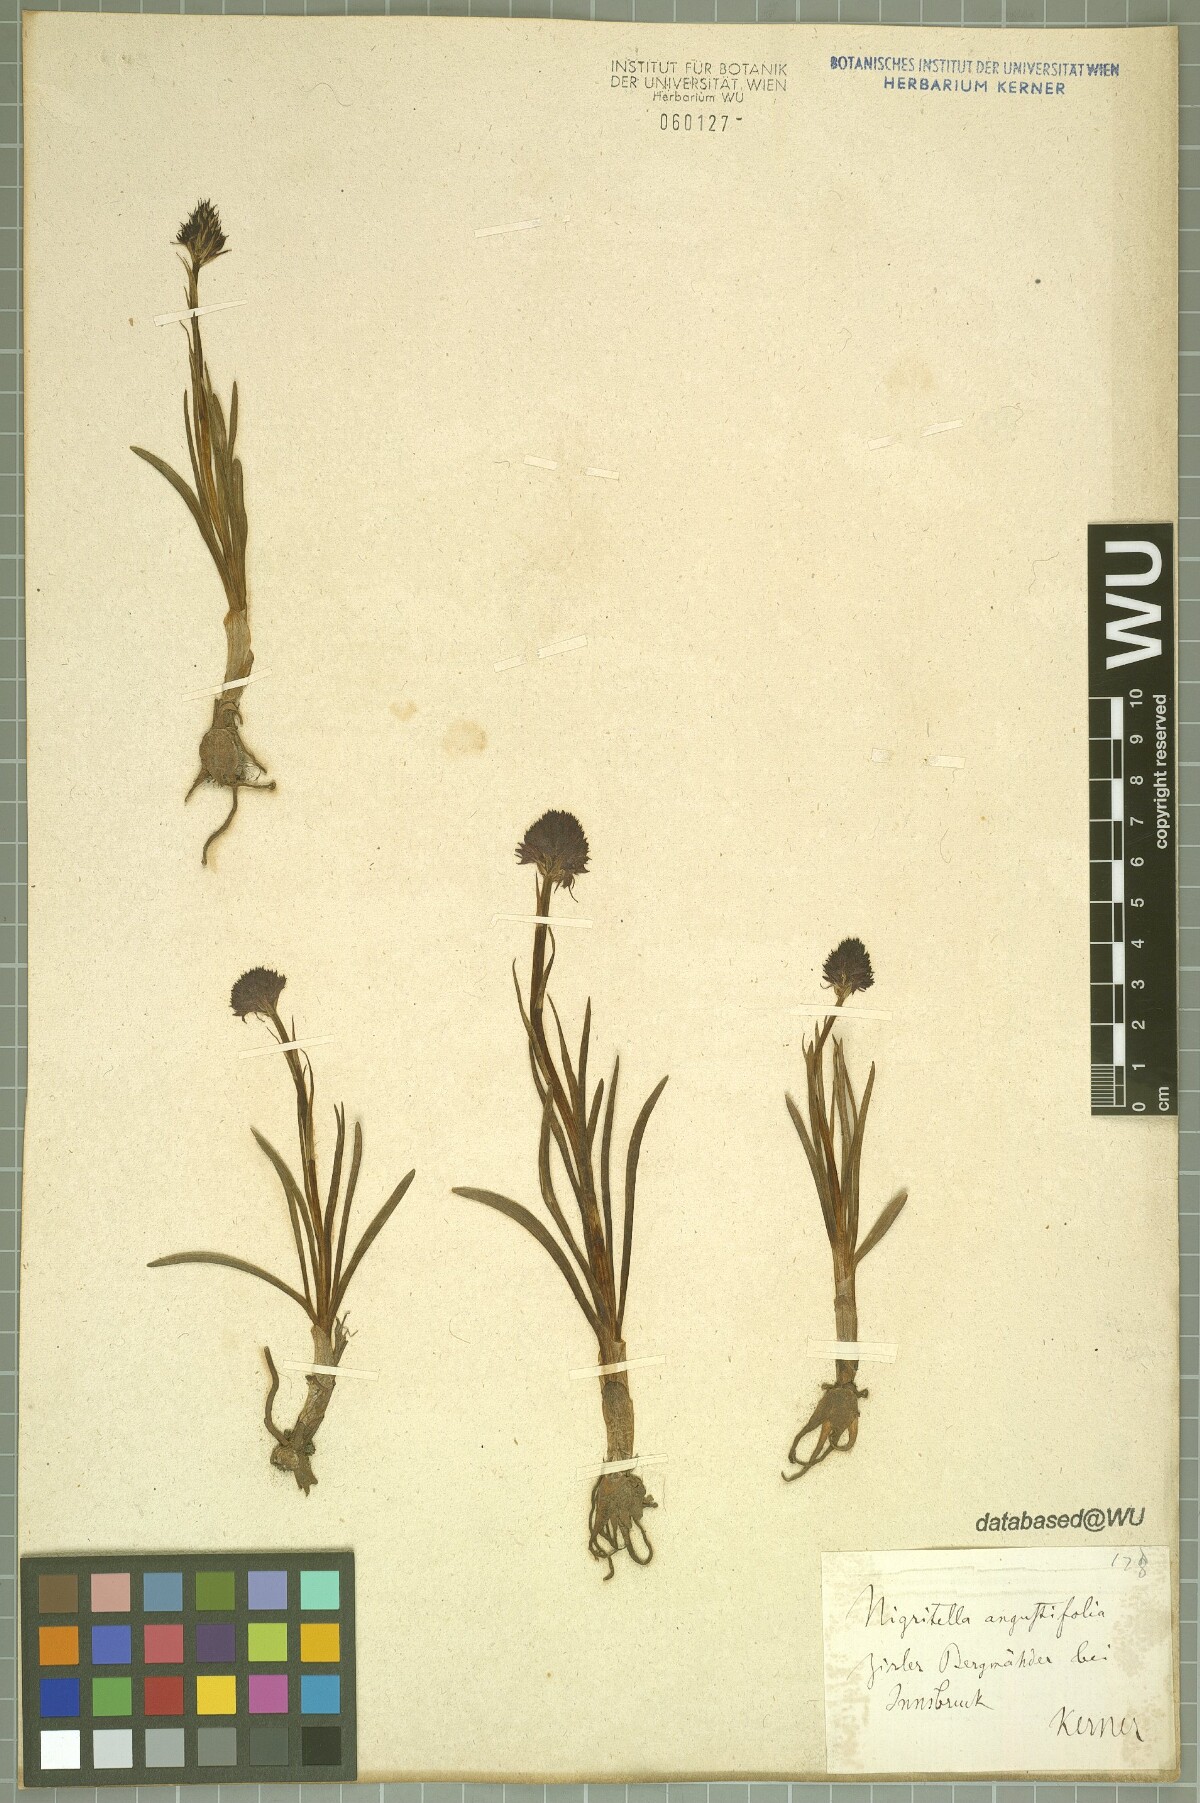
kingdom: Plantae
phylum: Tracheophyta
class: Liliopsida
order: Asparagales
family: Orchidaceae
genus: Gymnadenia
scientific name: Gymnadenia nigra
